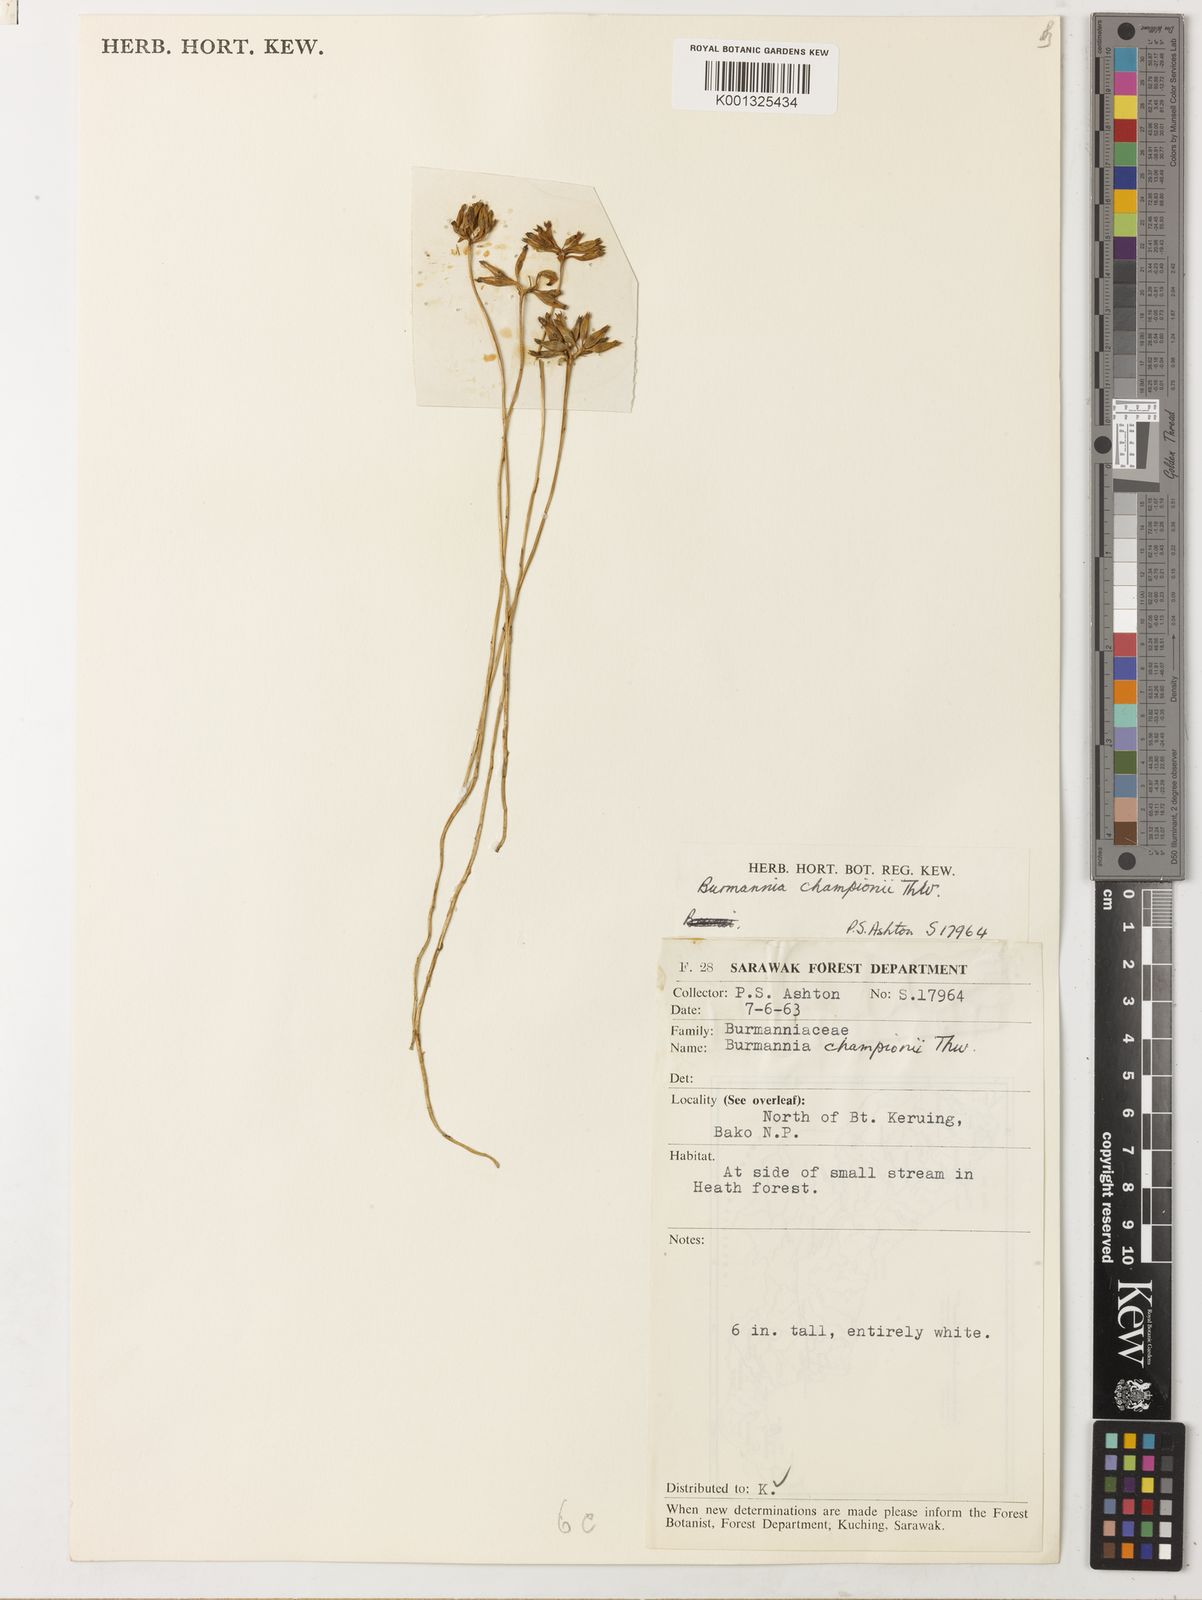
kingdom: Plantae
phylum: Tracheophyta
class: Liliopsida
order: Dioscoreales
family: Burmanniaceae
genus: Burmannia
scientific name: Burmannia championii
